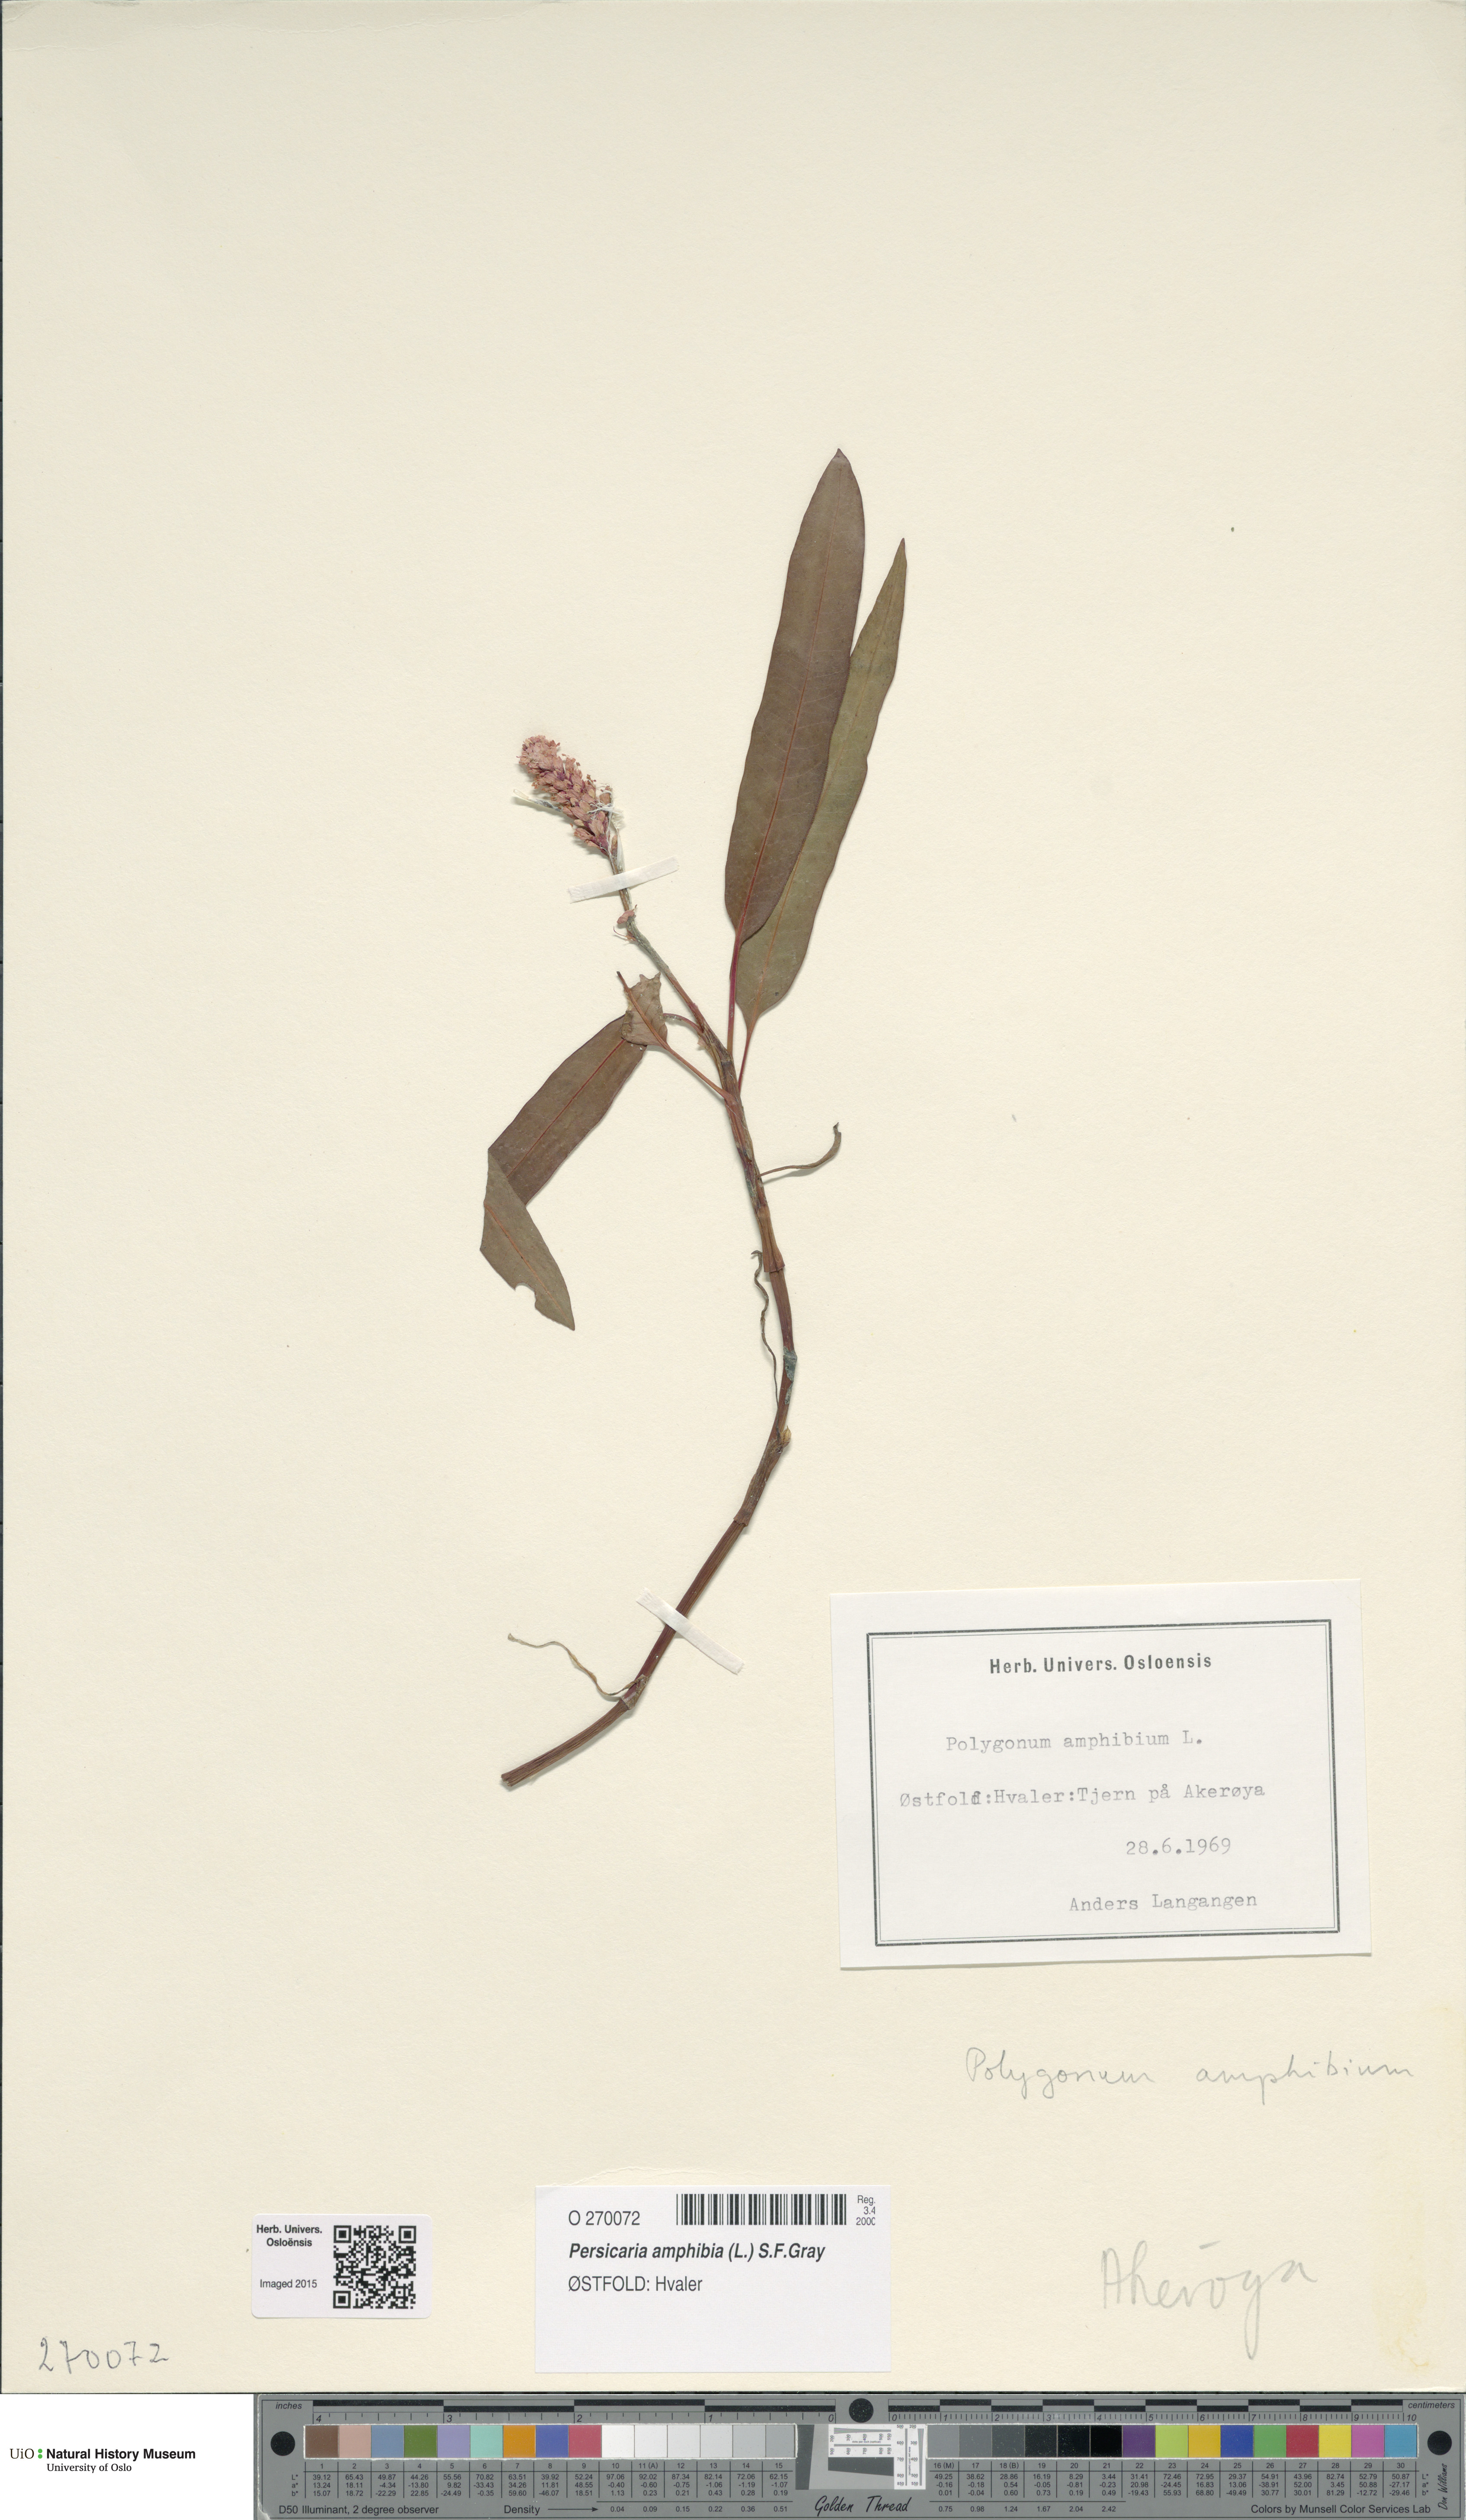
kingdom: Plantae
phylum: Tracheophyta
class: Magnoliopsida
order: Caryophyllales
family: Polygonaceae
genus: Persicaria
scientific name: Persicaria amphibia
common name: Amphibious bistort
